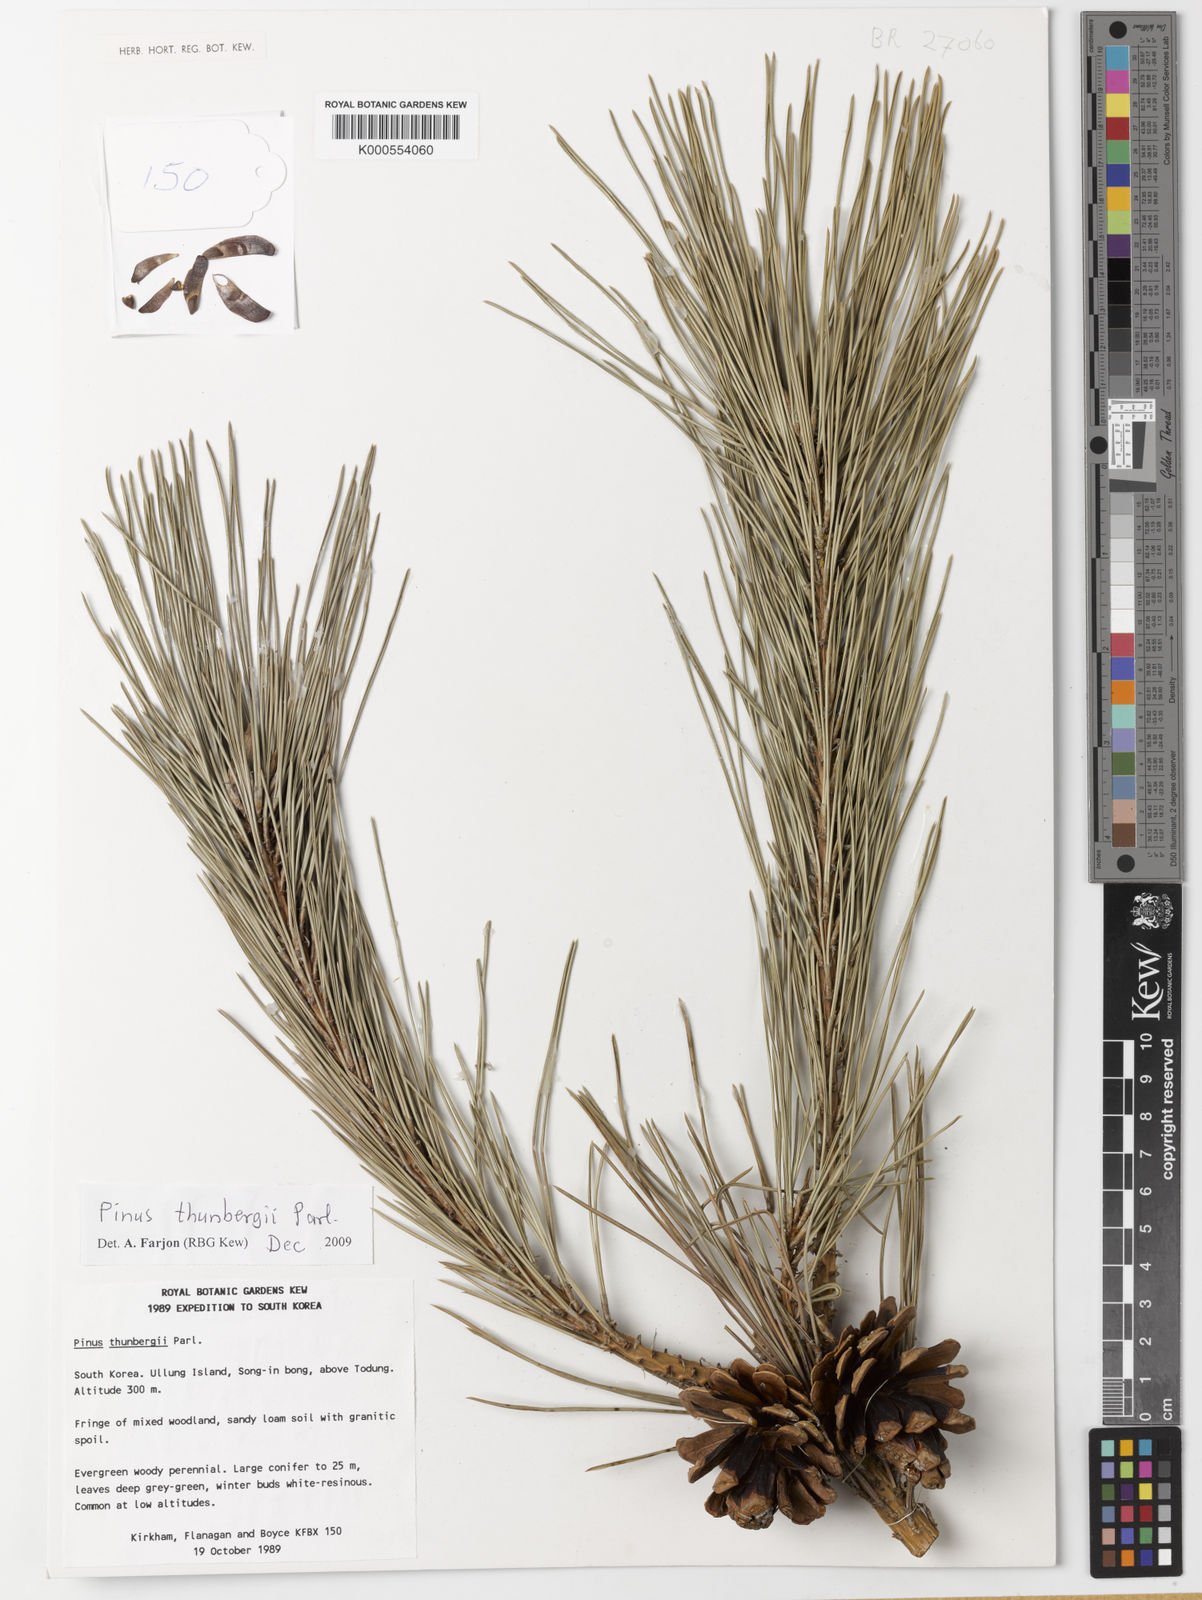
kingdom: Plantae
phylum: Tracheophyta
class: Pinopsida
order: Pinales
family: Pinaceae
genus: Pinus
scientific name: Pinus thunbergii
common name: Japanese black pine
